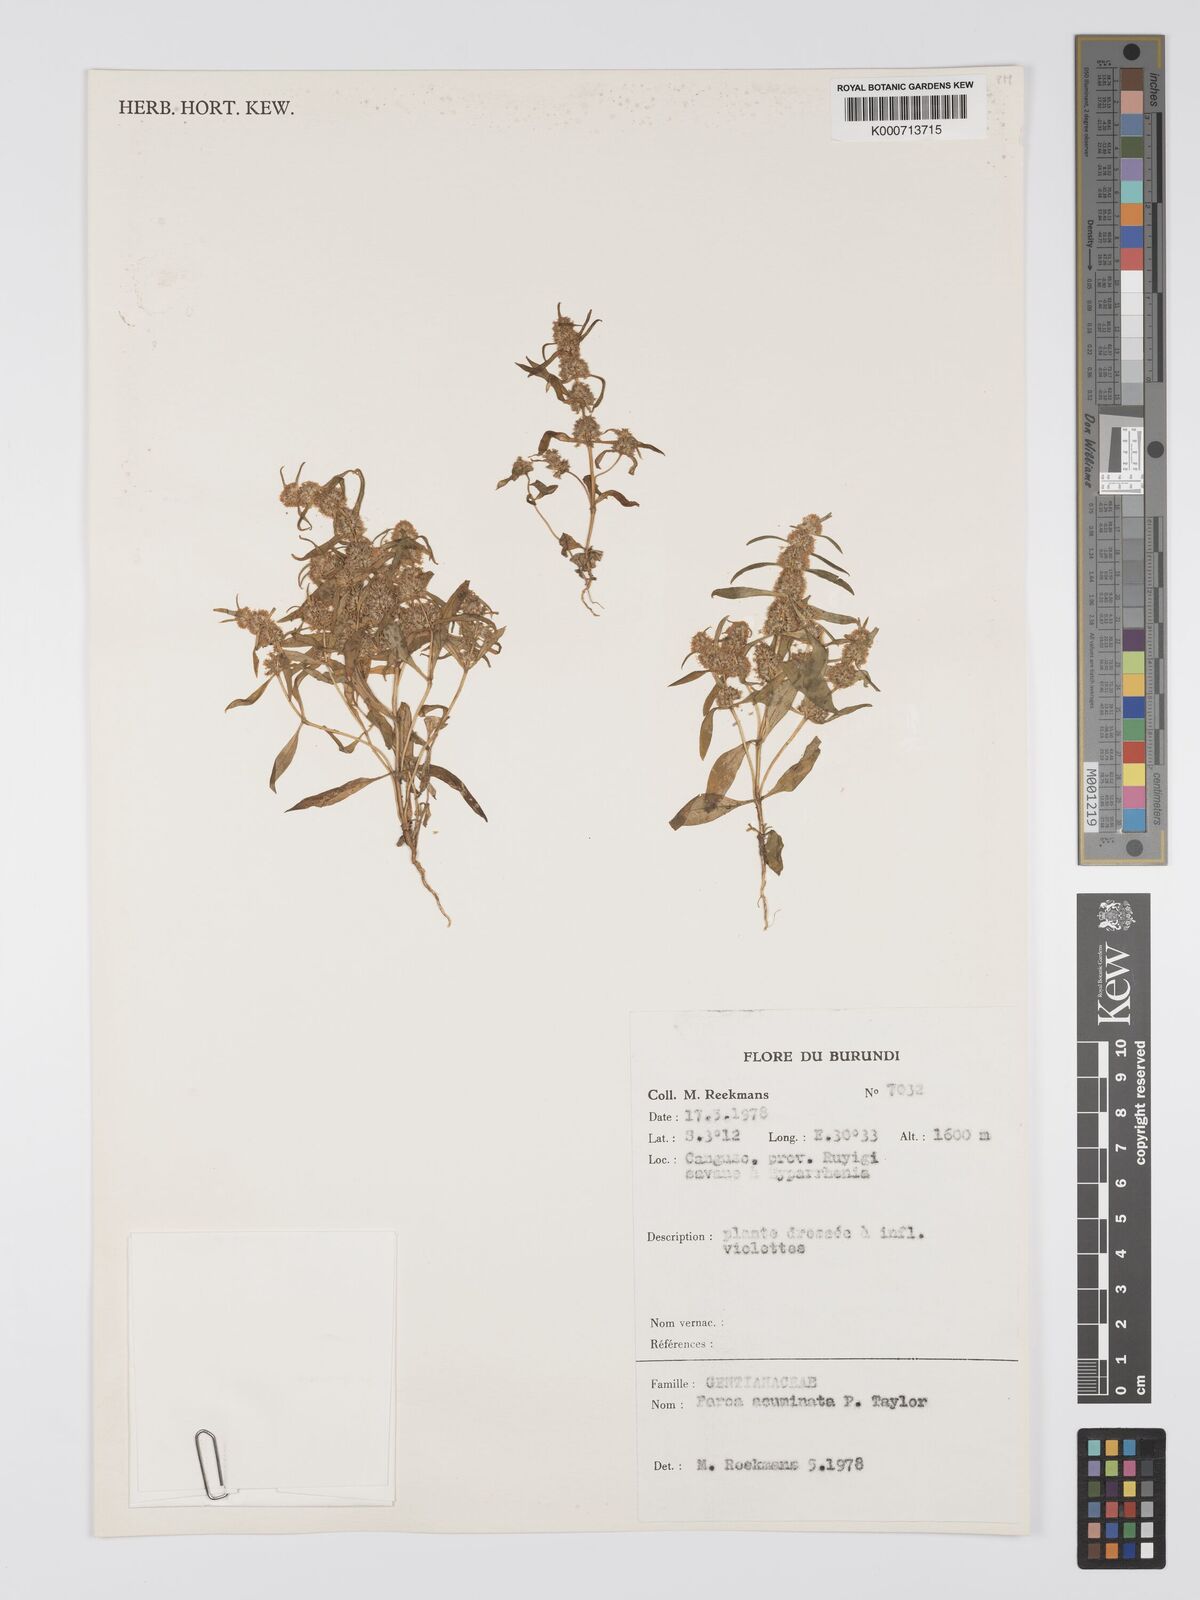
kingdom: Plantae
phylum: Tracheophyta
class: Magnoliopsida
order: Gentianales
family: Gentianaceae
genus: Faroa
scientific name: Faroa acuminata
